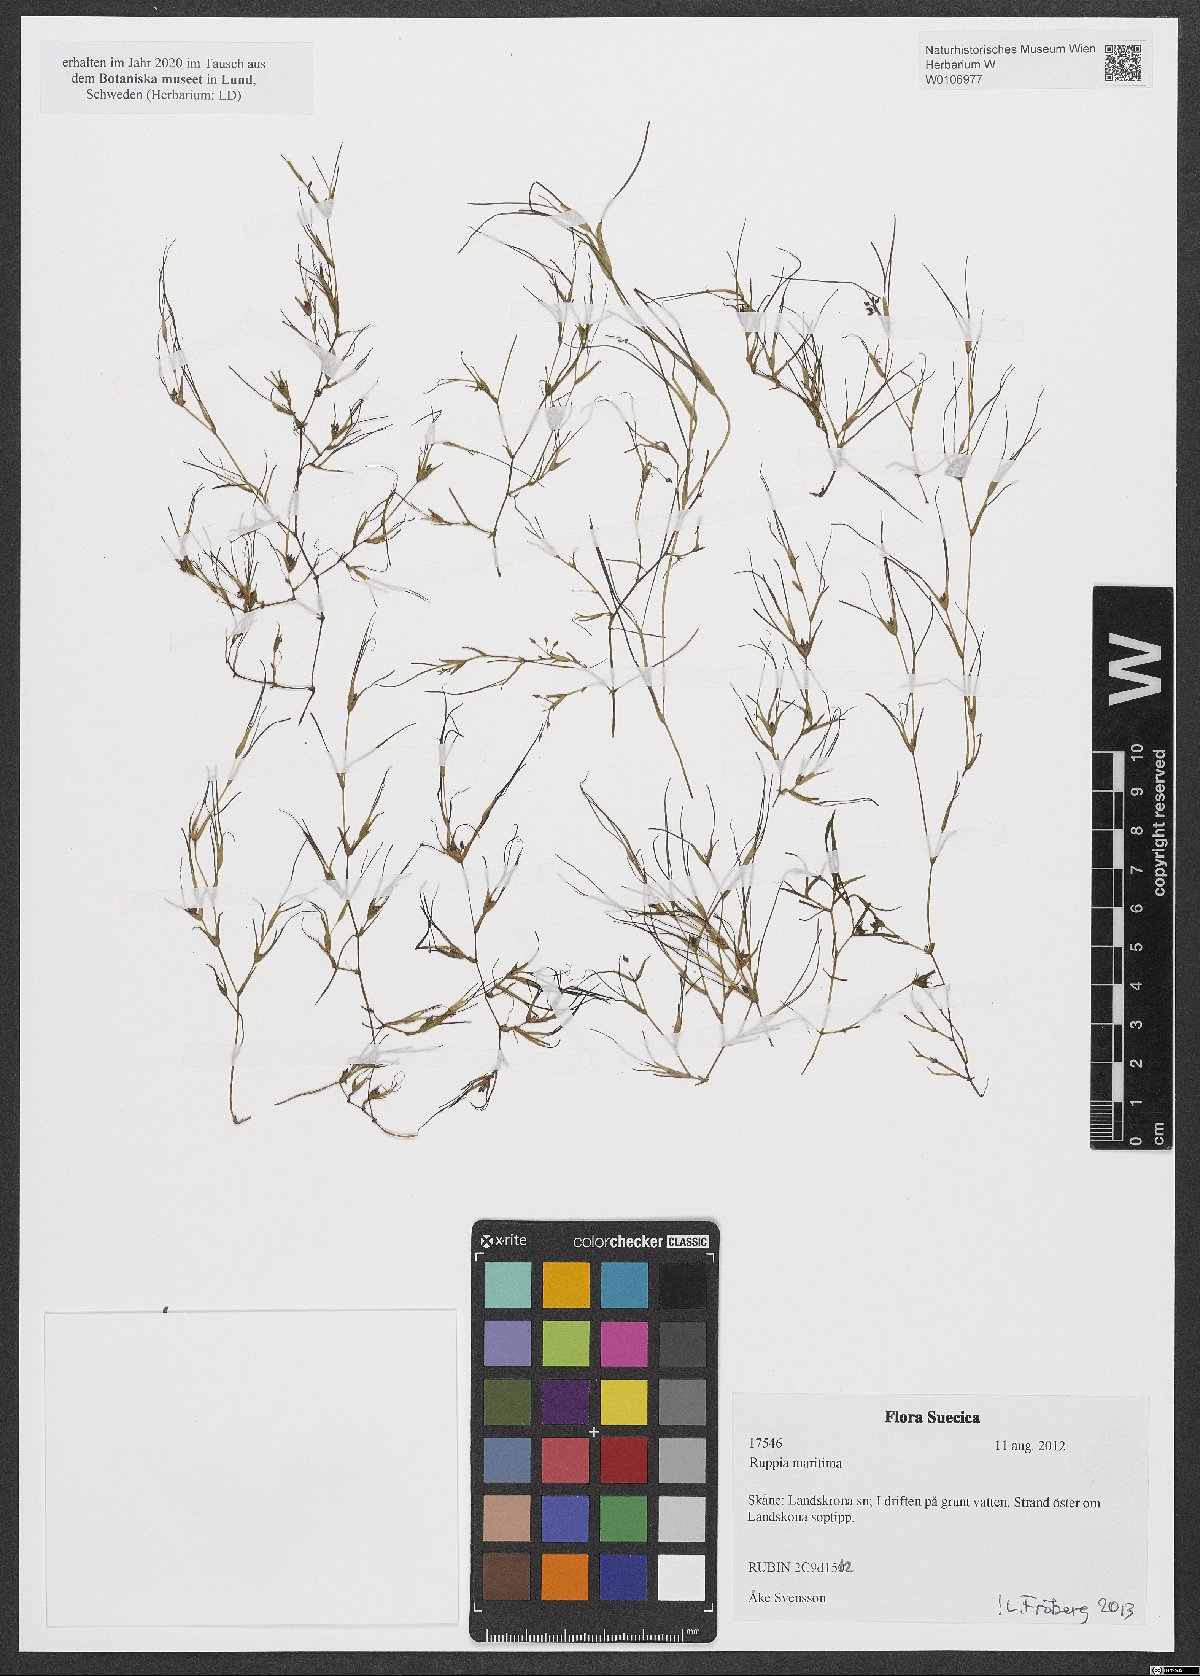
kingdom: Plantae
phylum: Tracheophyta
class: Liliopsida
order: Alismatales
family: Ruppiaceae
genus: Ruppia
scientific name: Ruppia maritima
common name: Beaked tasselweed
